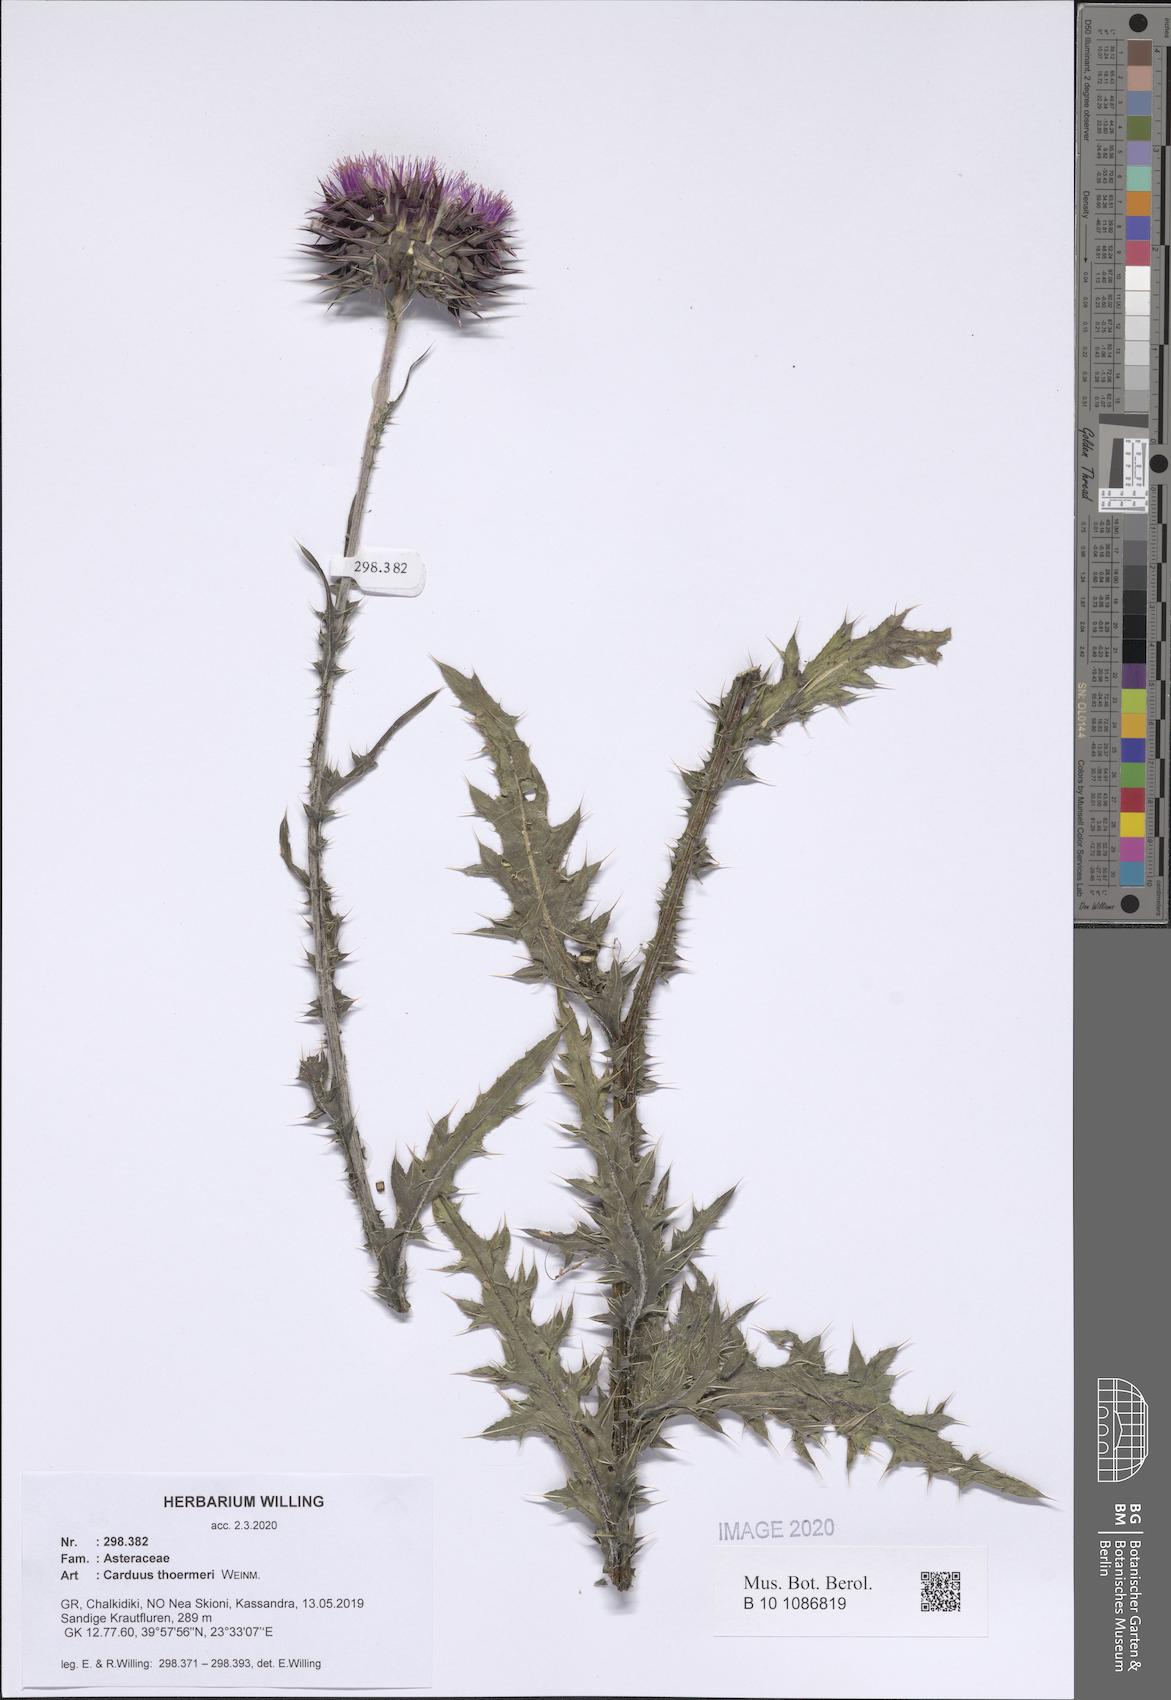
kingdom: Plantae
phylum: Tracheophyta
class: Magnoliopsida
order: Asterales
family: Asteraceae
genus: Carduus
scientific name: Carduus nutans
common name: Musk thistle
